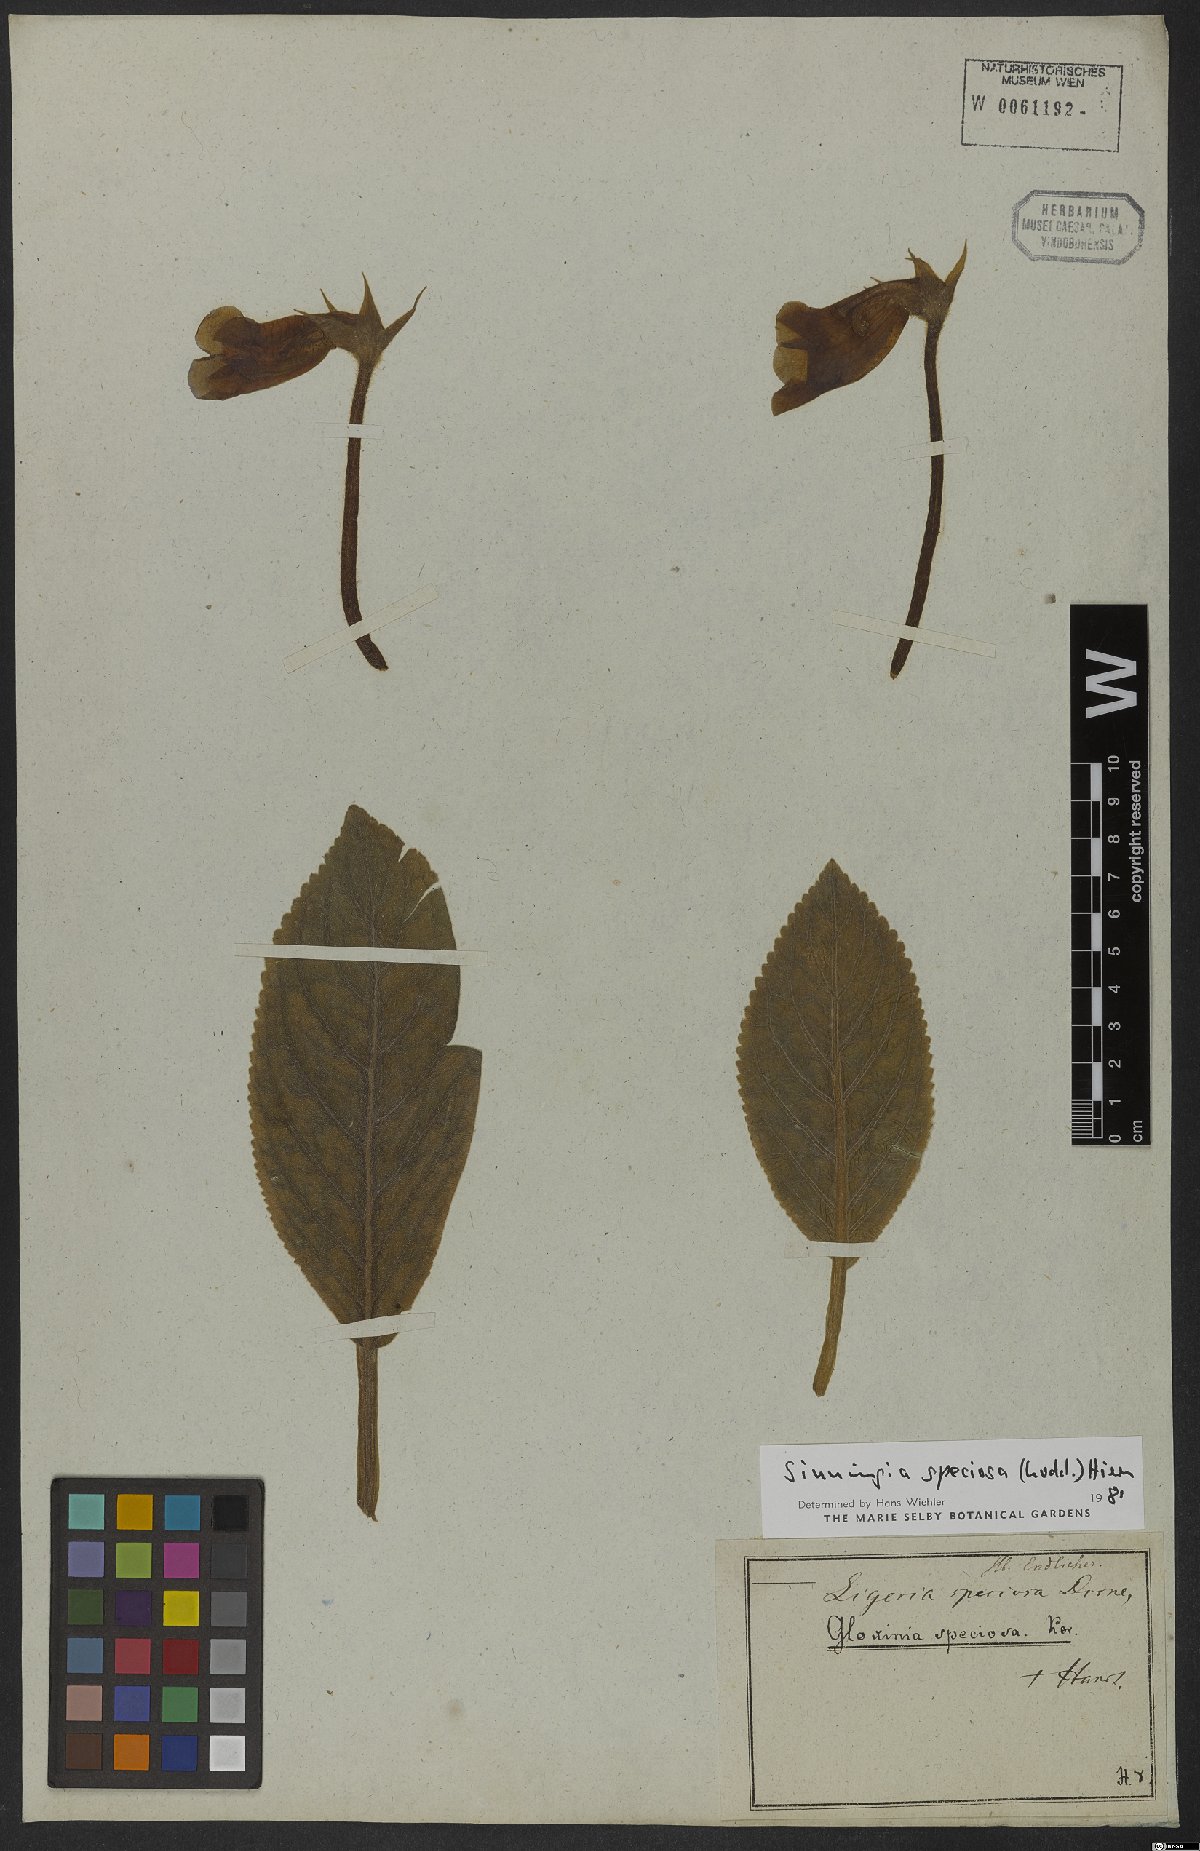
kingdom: Plantae
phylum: Tracheophyta
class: Magnoliopsida
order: Lamiales
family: Gesneriaceae
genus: Sinningia
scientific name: Sinningia speciosa
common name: Brazilian gloxinia
